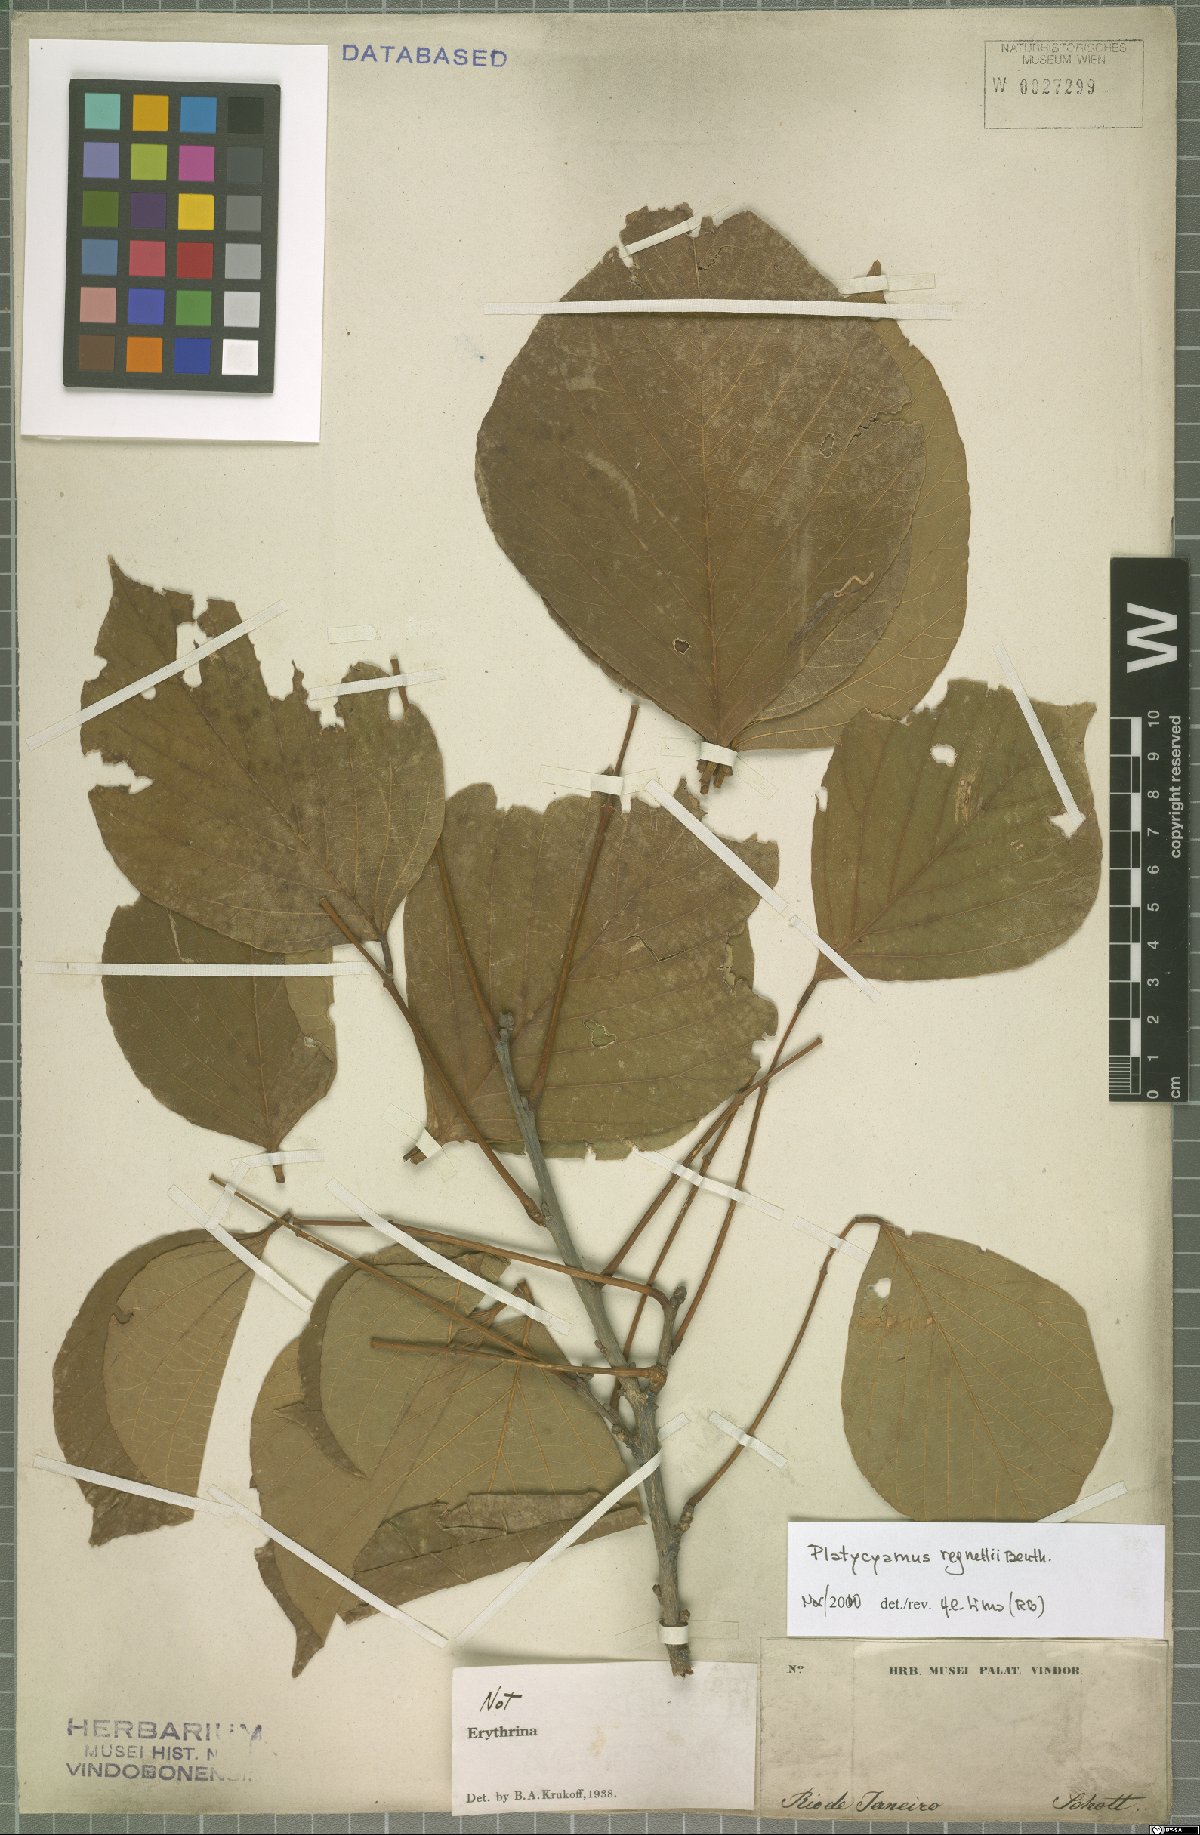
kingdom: Plantae
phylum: Tracheophyta
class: Magnoliopsida
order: Fabales
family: Fabaceae
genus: Platycyamus
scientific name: Platycyamus regnellii
